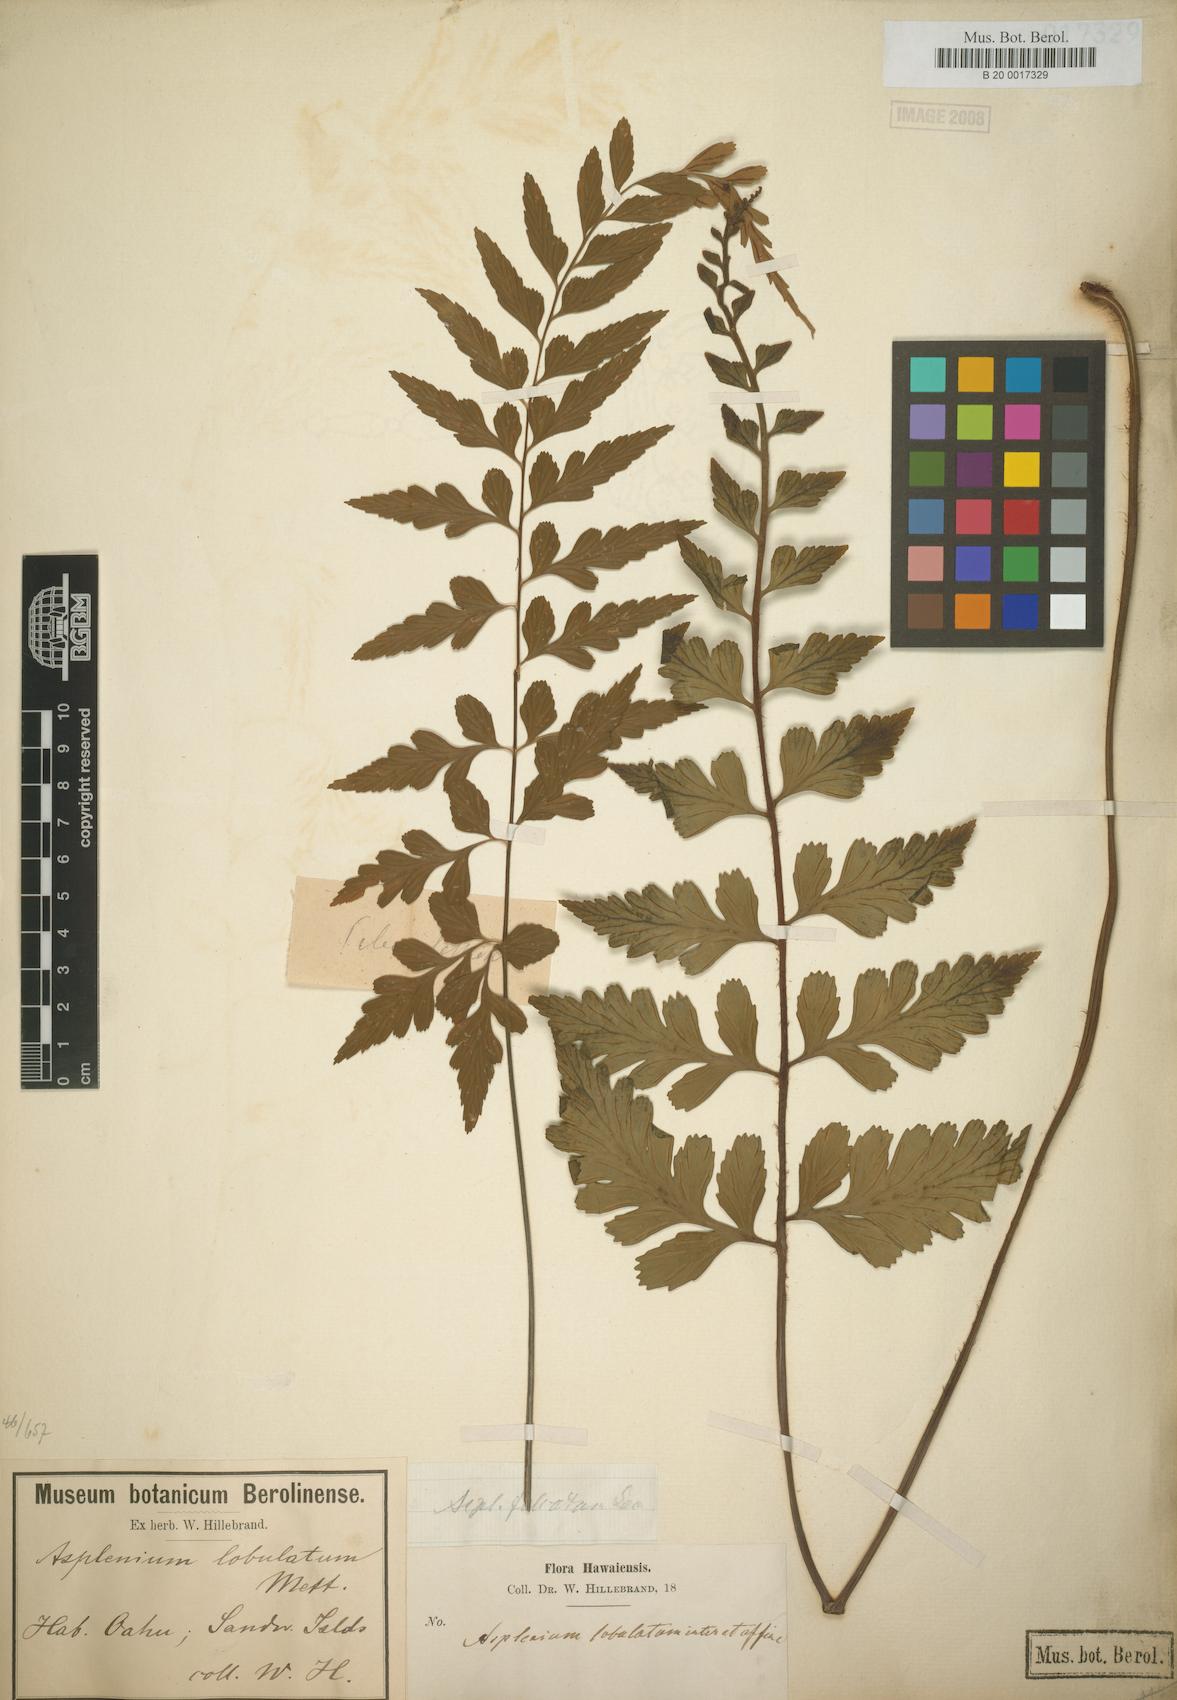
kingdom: Plantae
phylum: Tracheophyta
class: Polypodiopsida
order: Polypodiales
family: Aspleniaceae
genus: Asplenium
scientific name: Asplenium lobulatum
